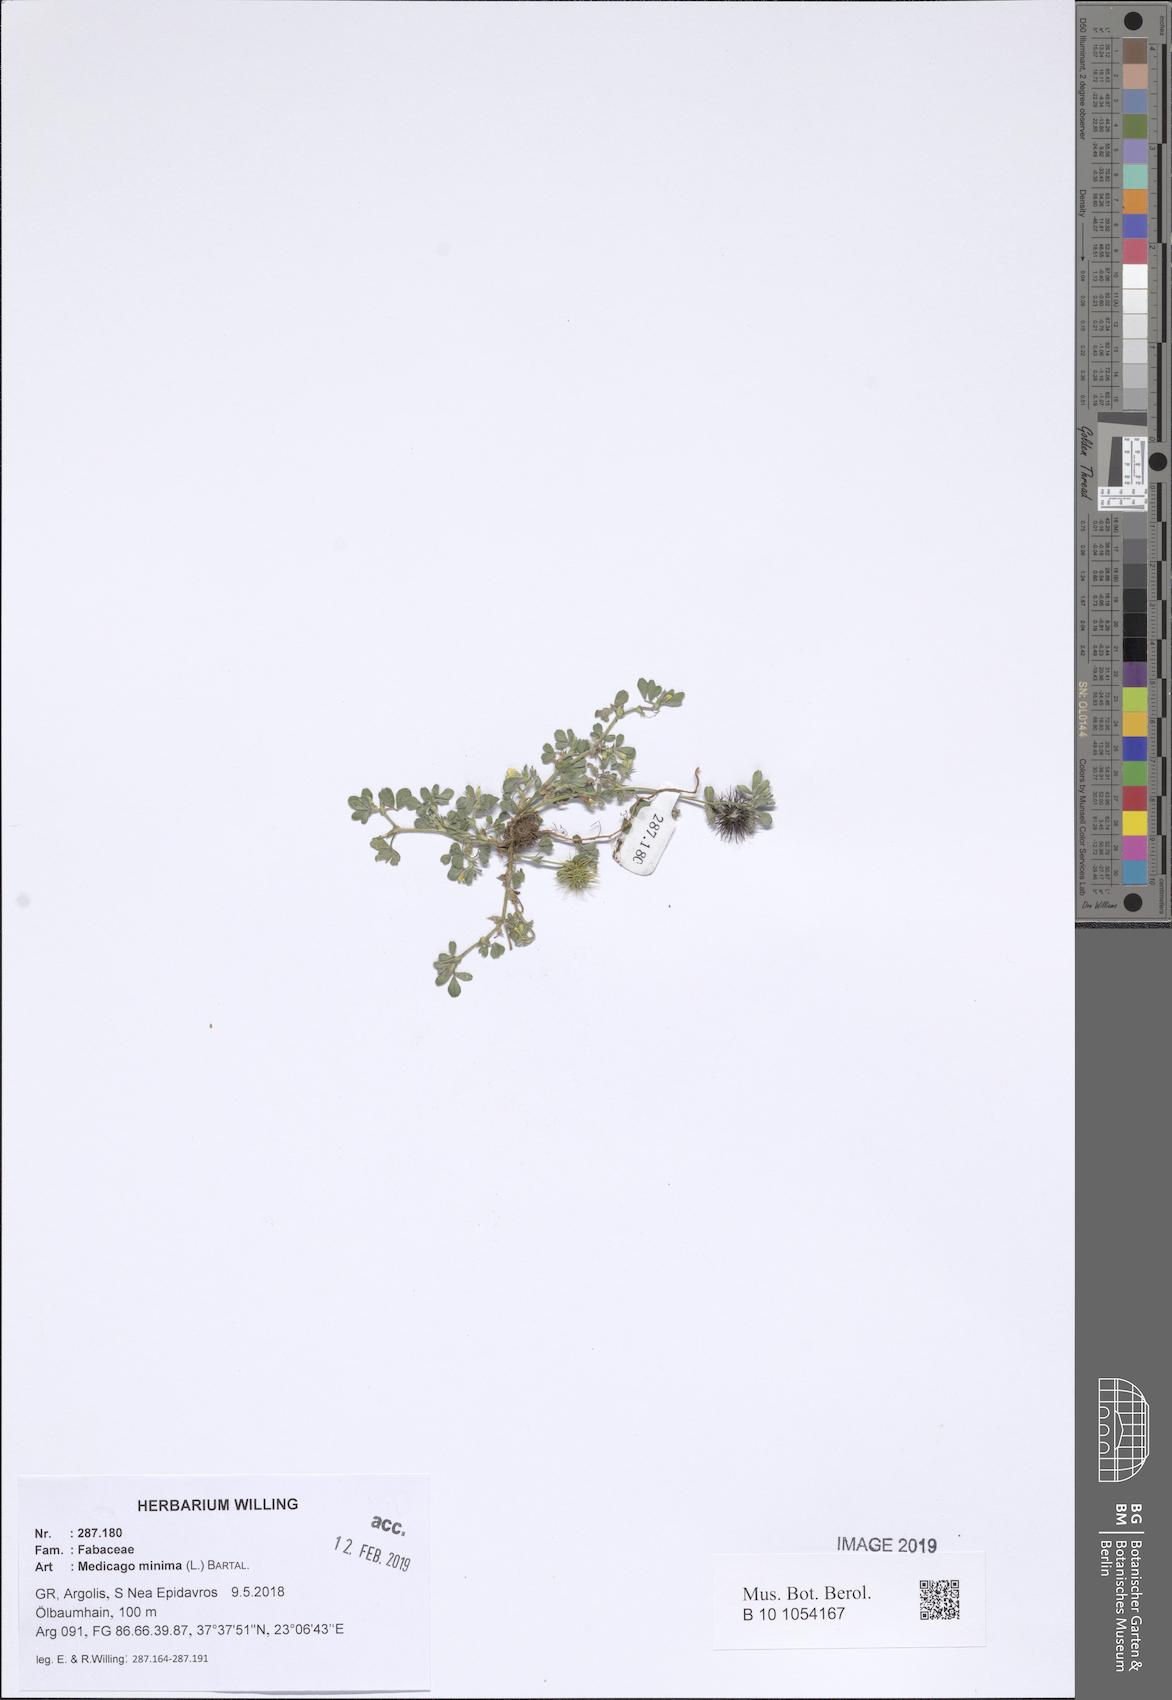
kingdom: Plantae
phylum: Tracheophyta
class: Magnoliopsida
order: Fabales
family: Fabaceae
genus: Medicago
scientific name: Medicago minima
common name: Little bur-clover
